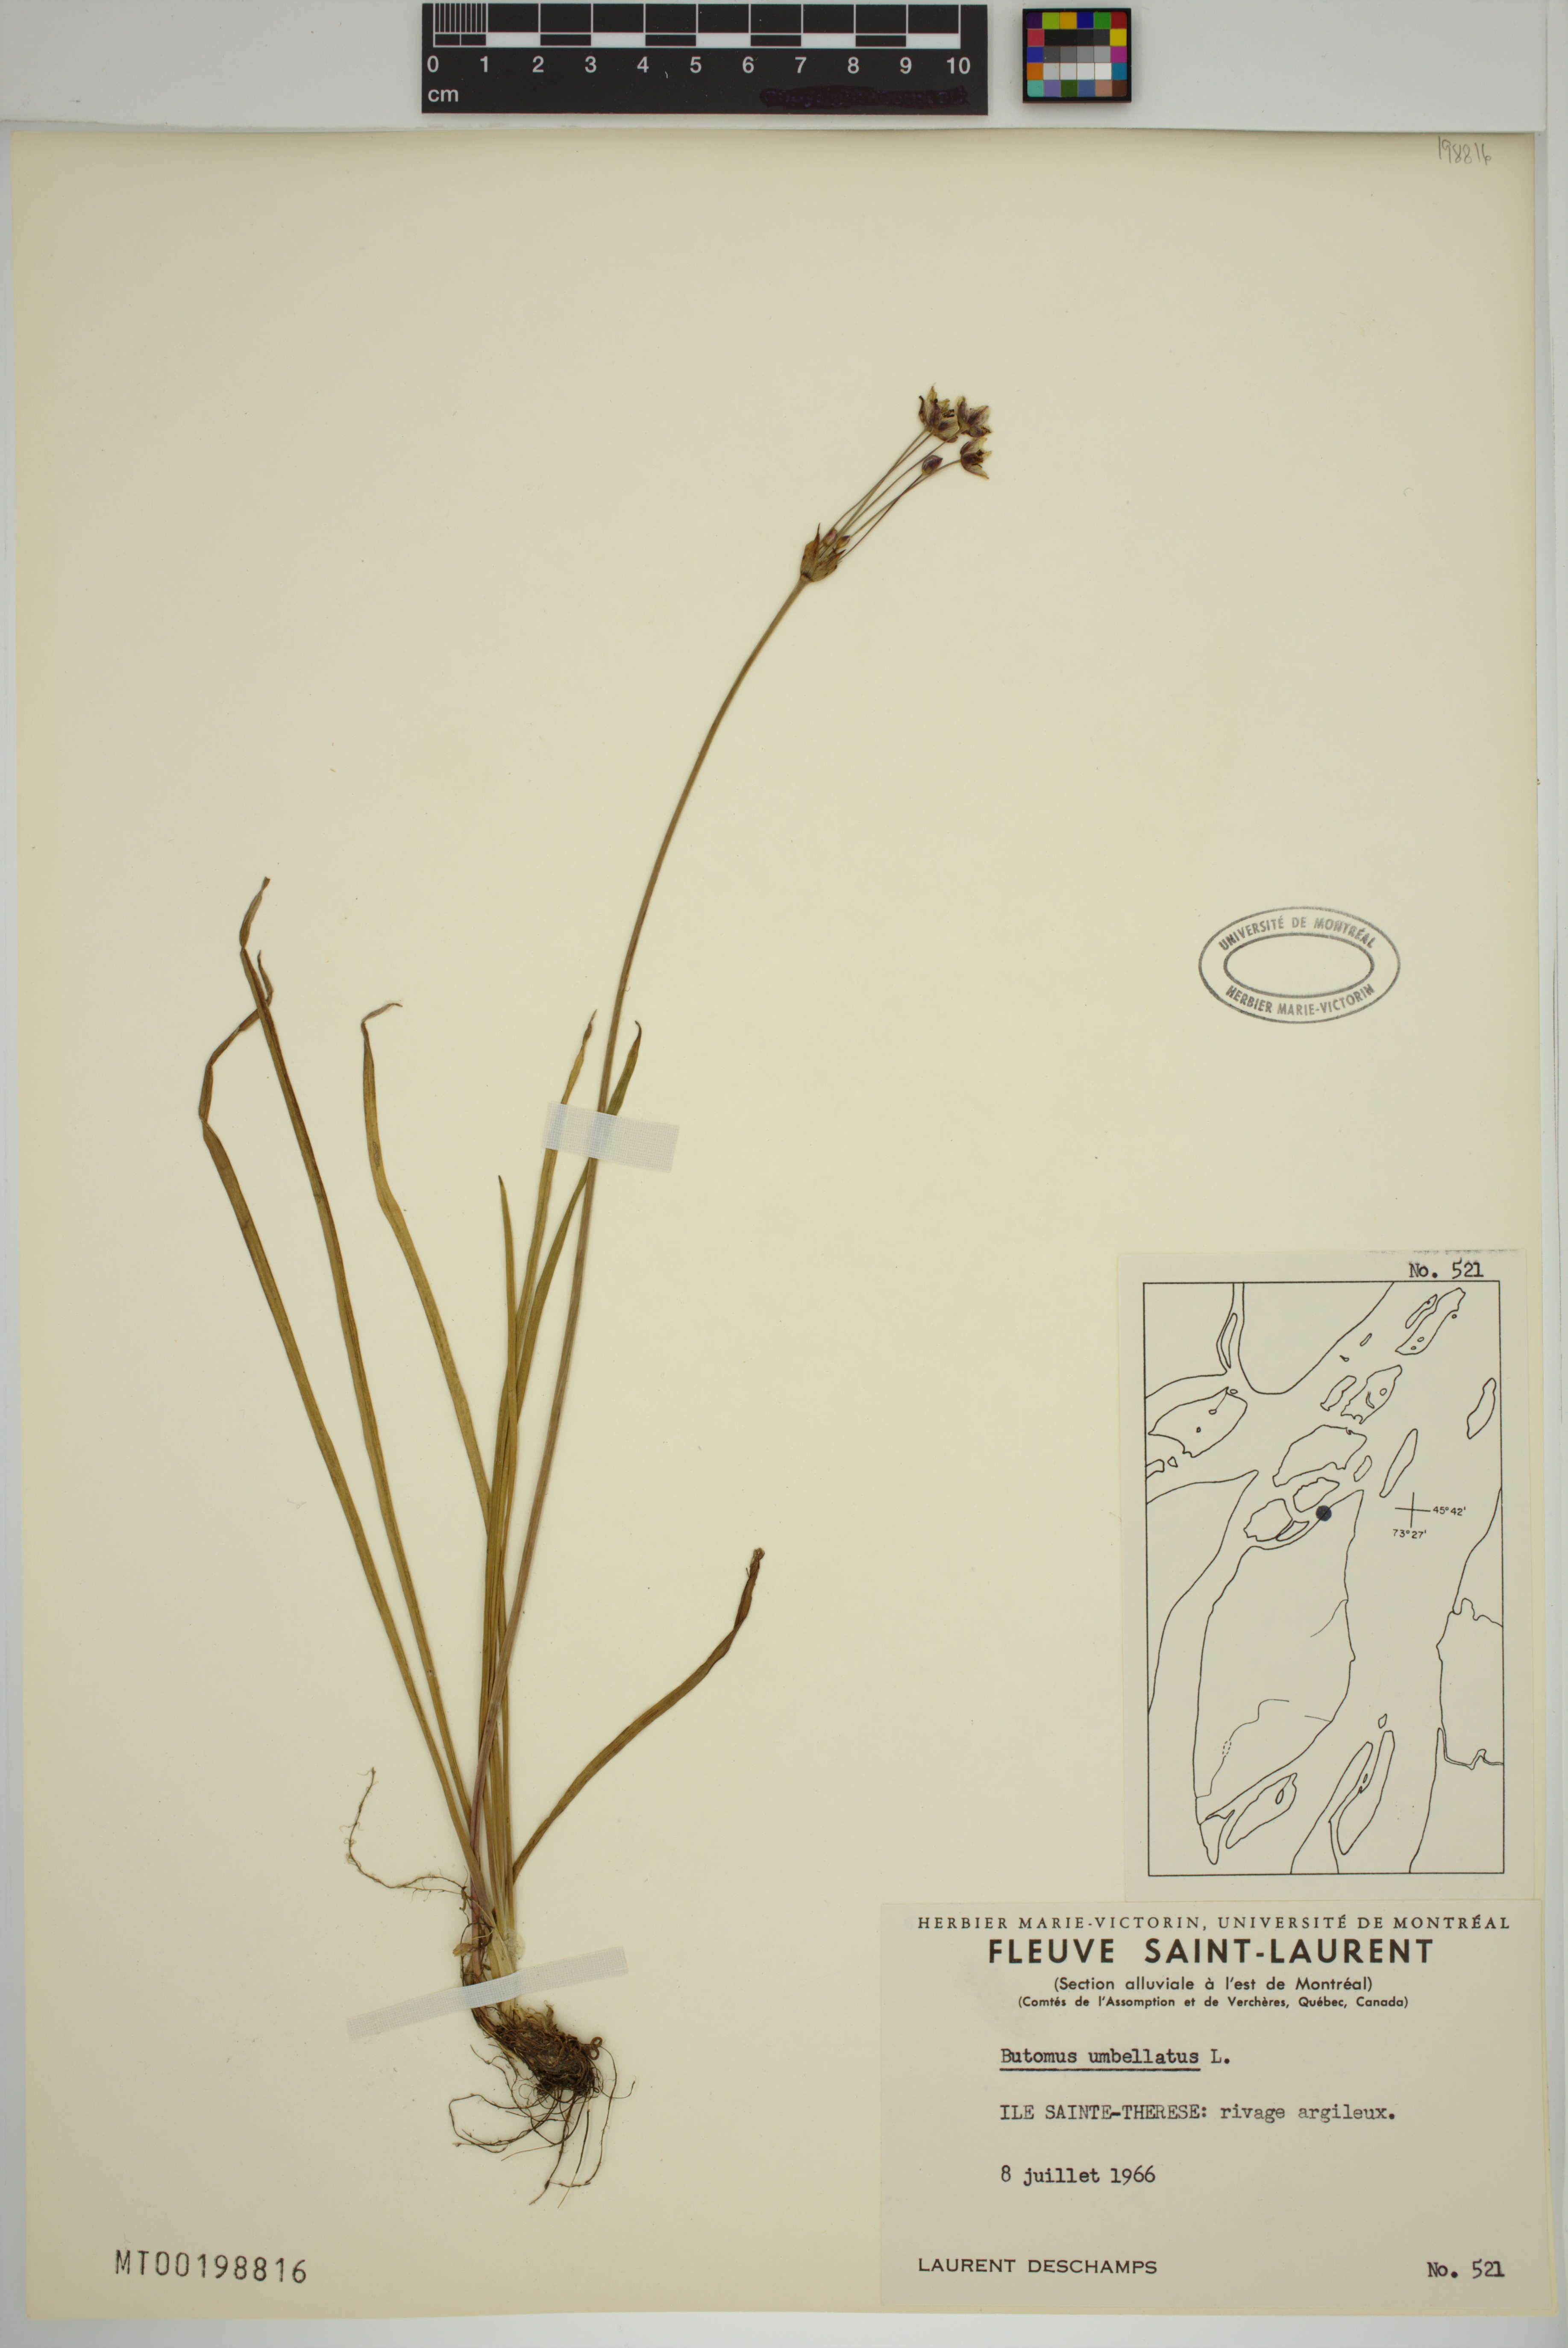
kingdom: Plantae
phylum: Tracheophyta
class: Liliopsida
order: Alismatales
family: Butomaceae
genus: Butomus
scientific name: Butomus umbellatus
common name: Flowering-rush
